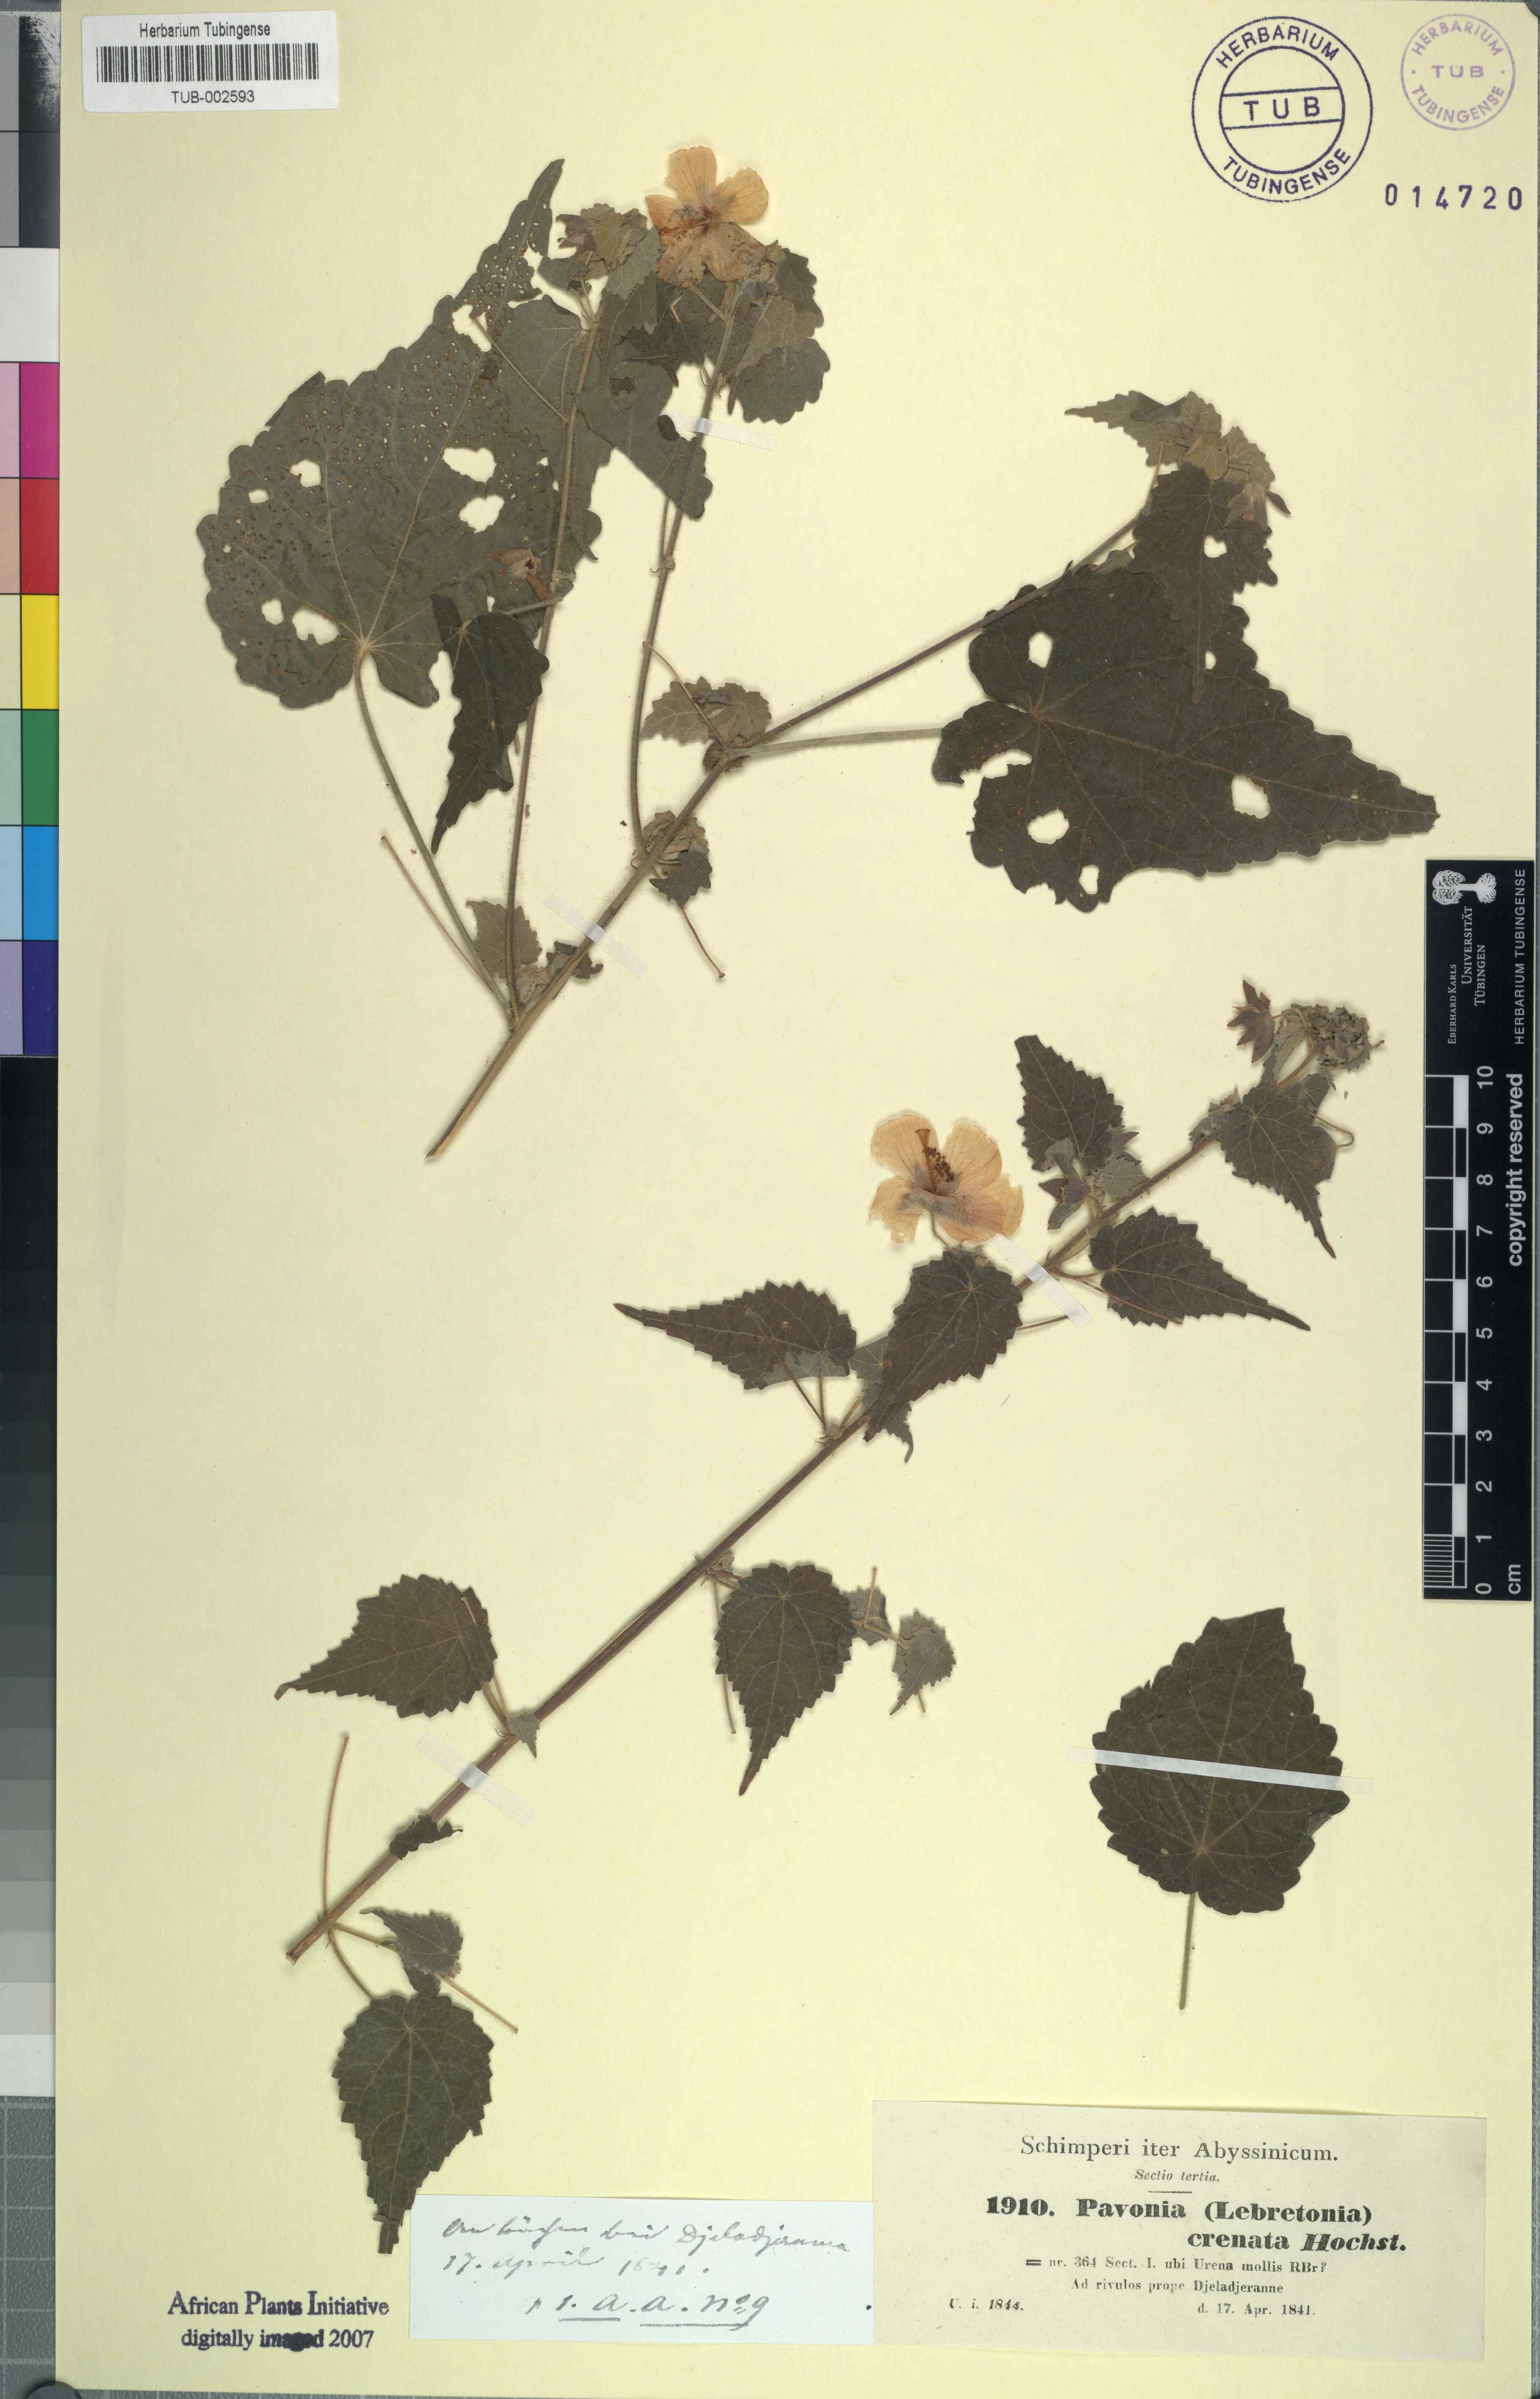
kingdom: Plantae
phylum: Tracheophyta
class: Magnoliopsida
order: Malvales
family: Malvaceae
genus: Pavonia
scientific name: Pavonia burchellii
